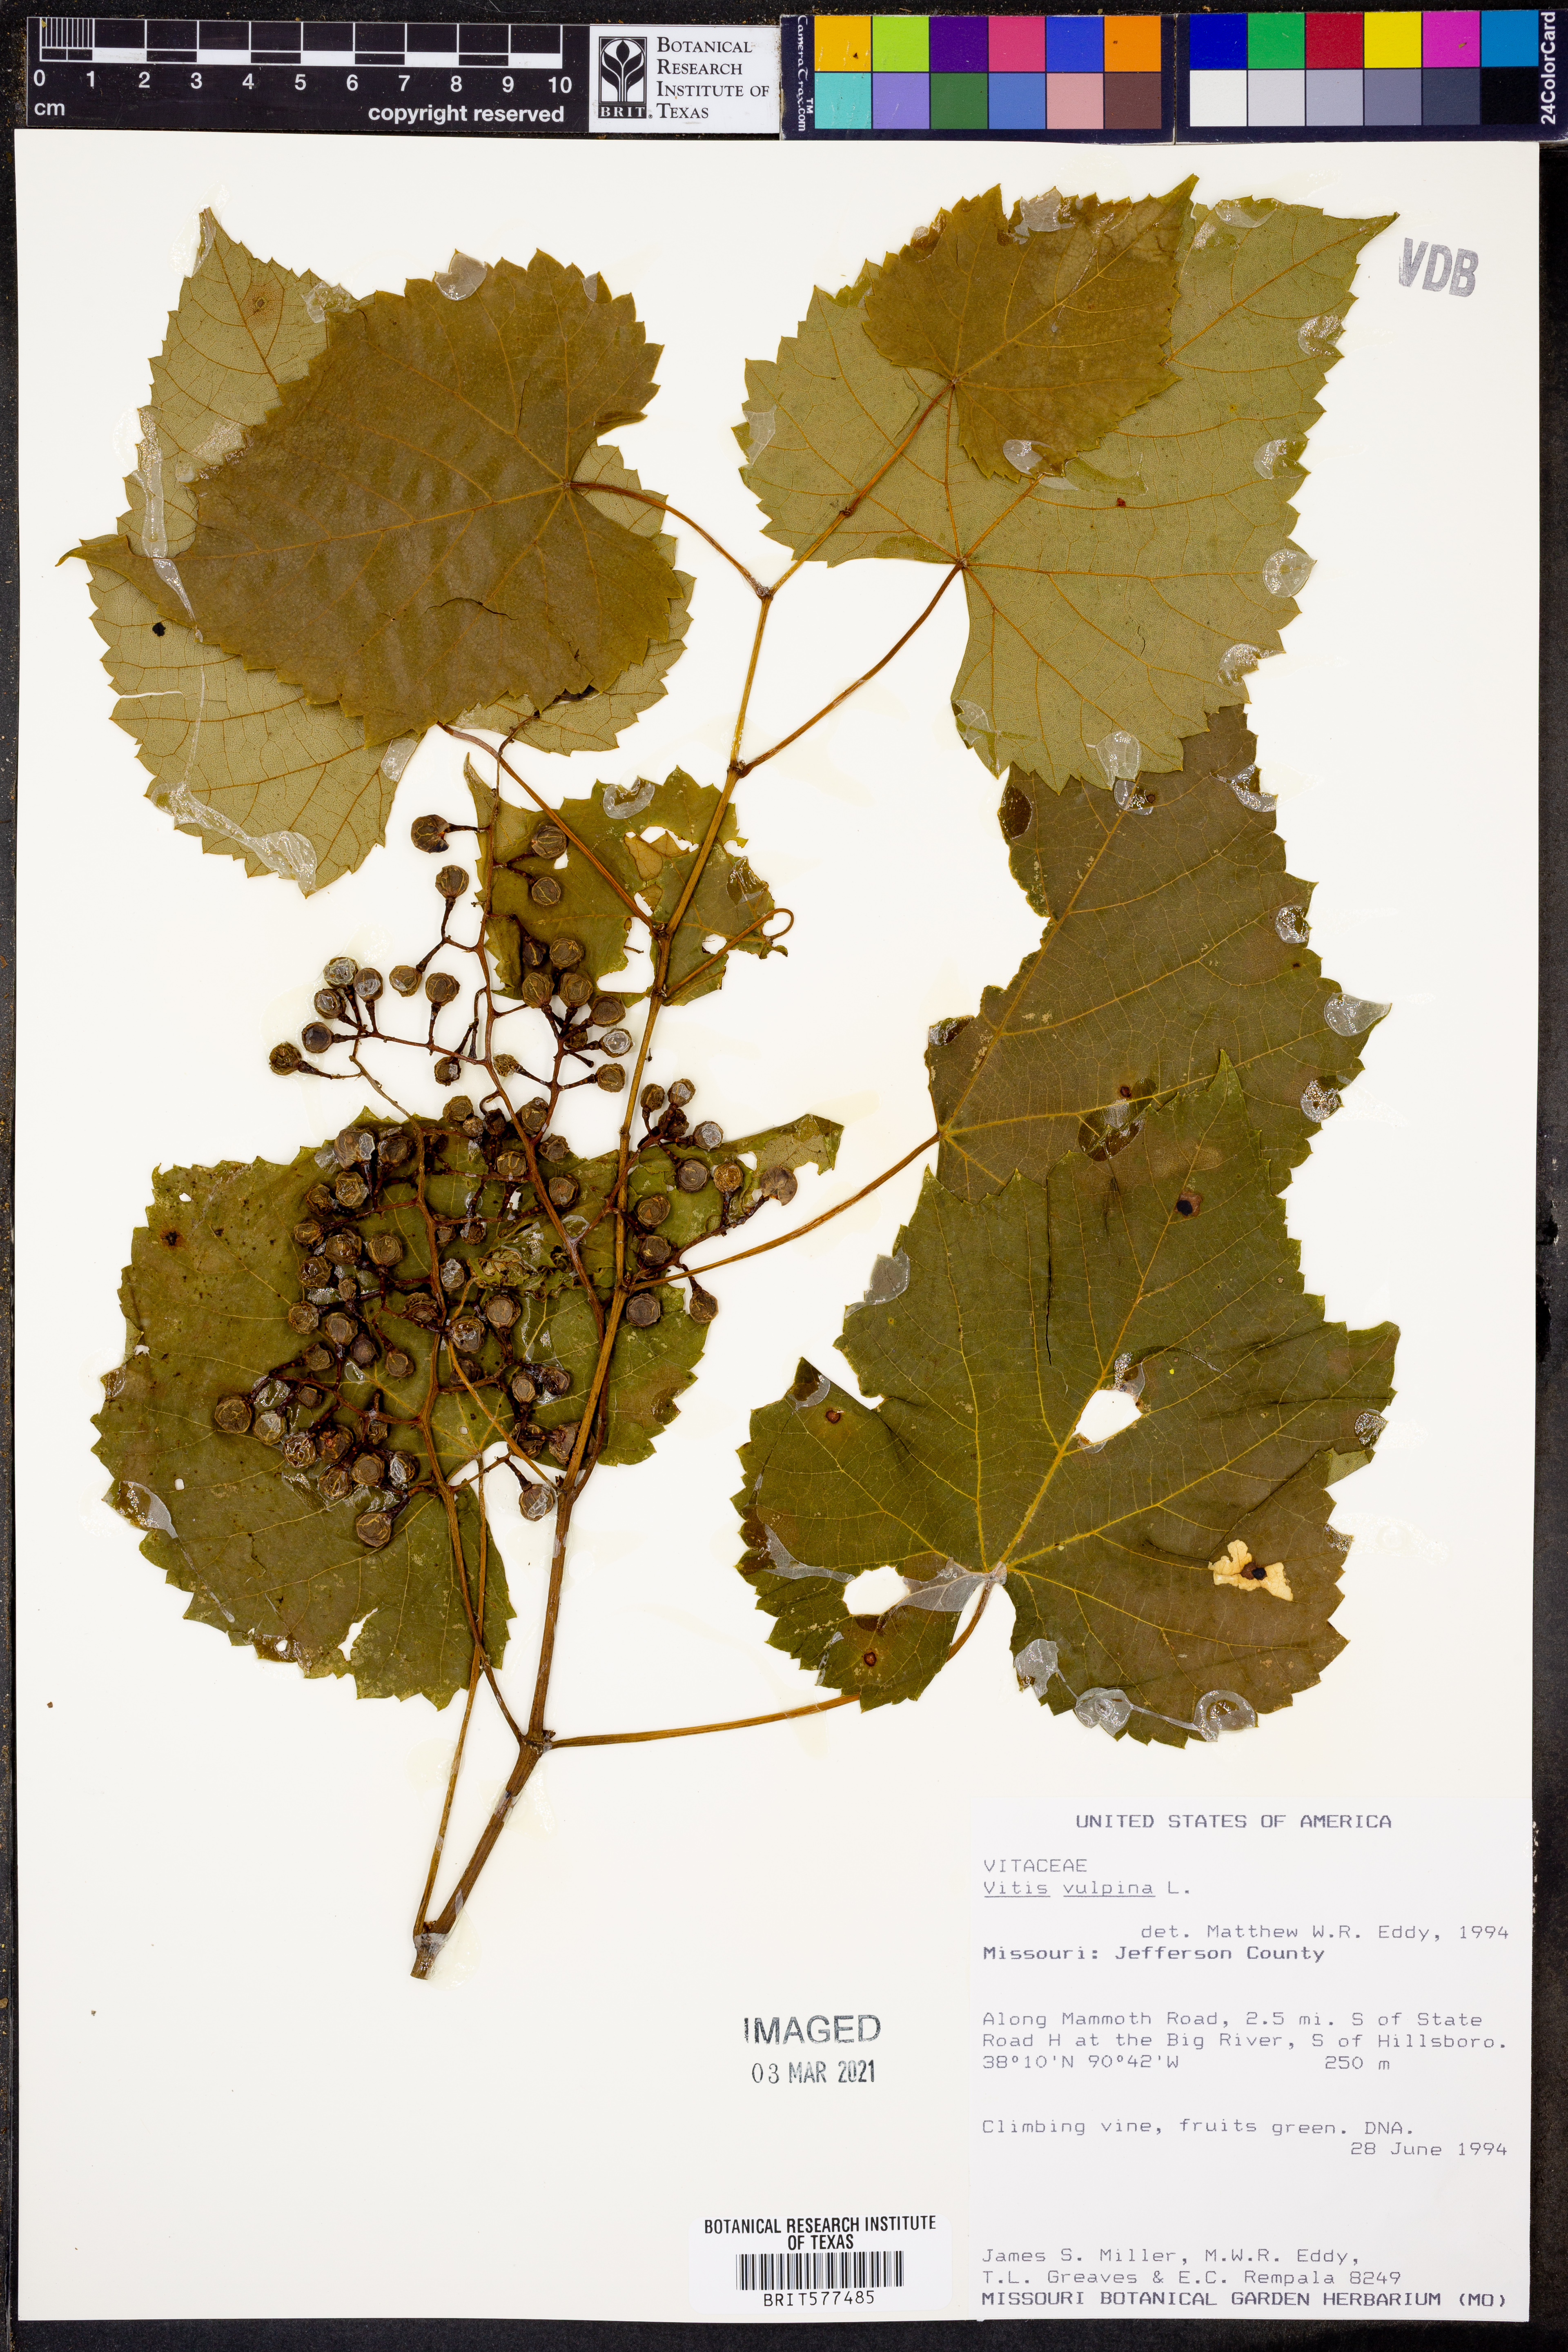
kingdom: Plantae
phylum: Tracheophyta
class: Magnoliopsida
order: Vitales
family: Vitaceae
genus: Vitis
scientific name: Vitis vulpina
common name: Frost grape
